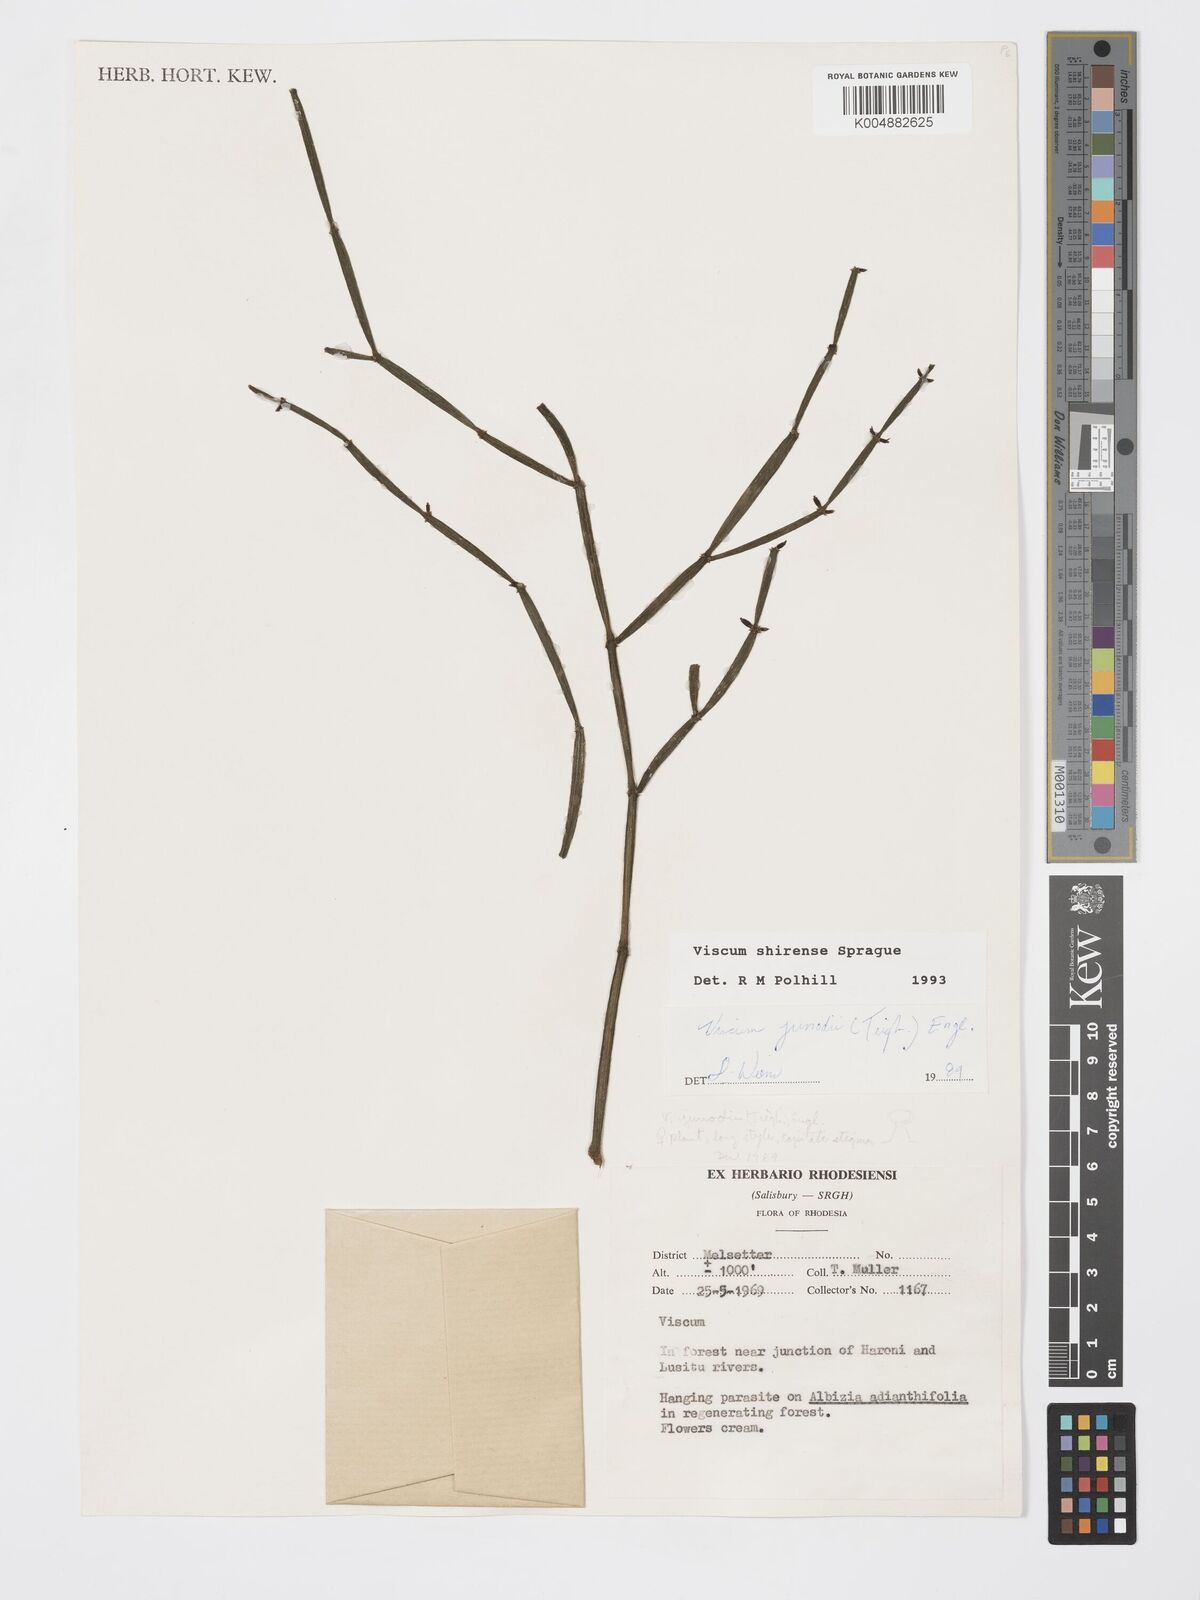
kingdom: Plantae
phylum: Tracheophyta
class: Magnoliopsida
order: Santalales
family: Viscaceae
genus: Viscum
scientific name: Viscum junodii
